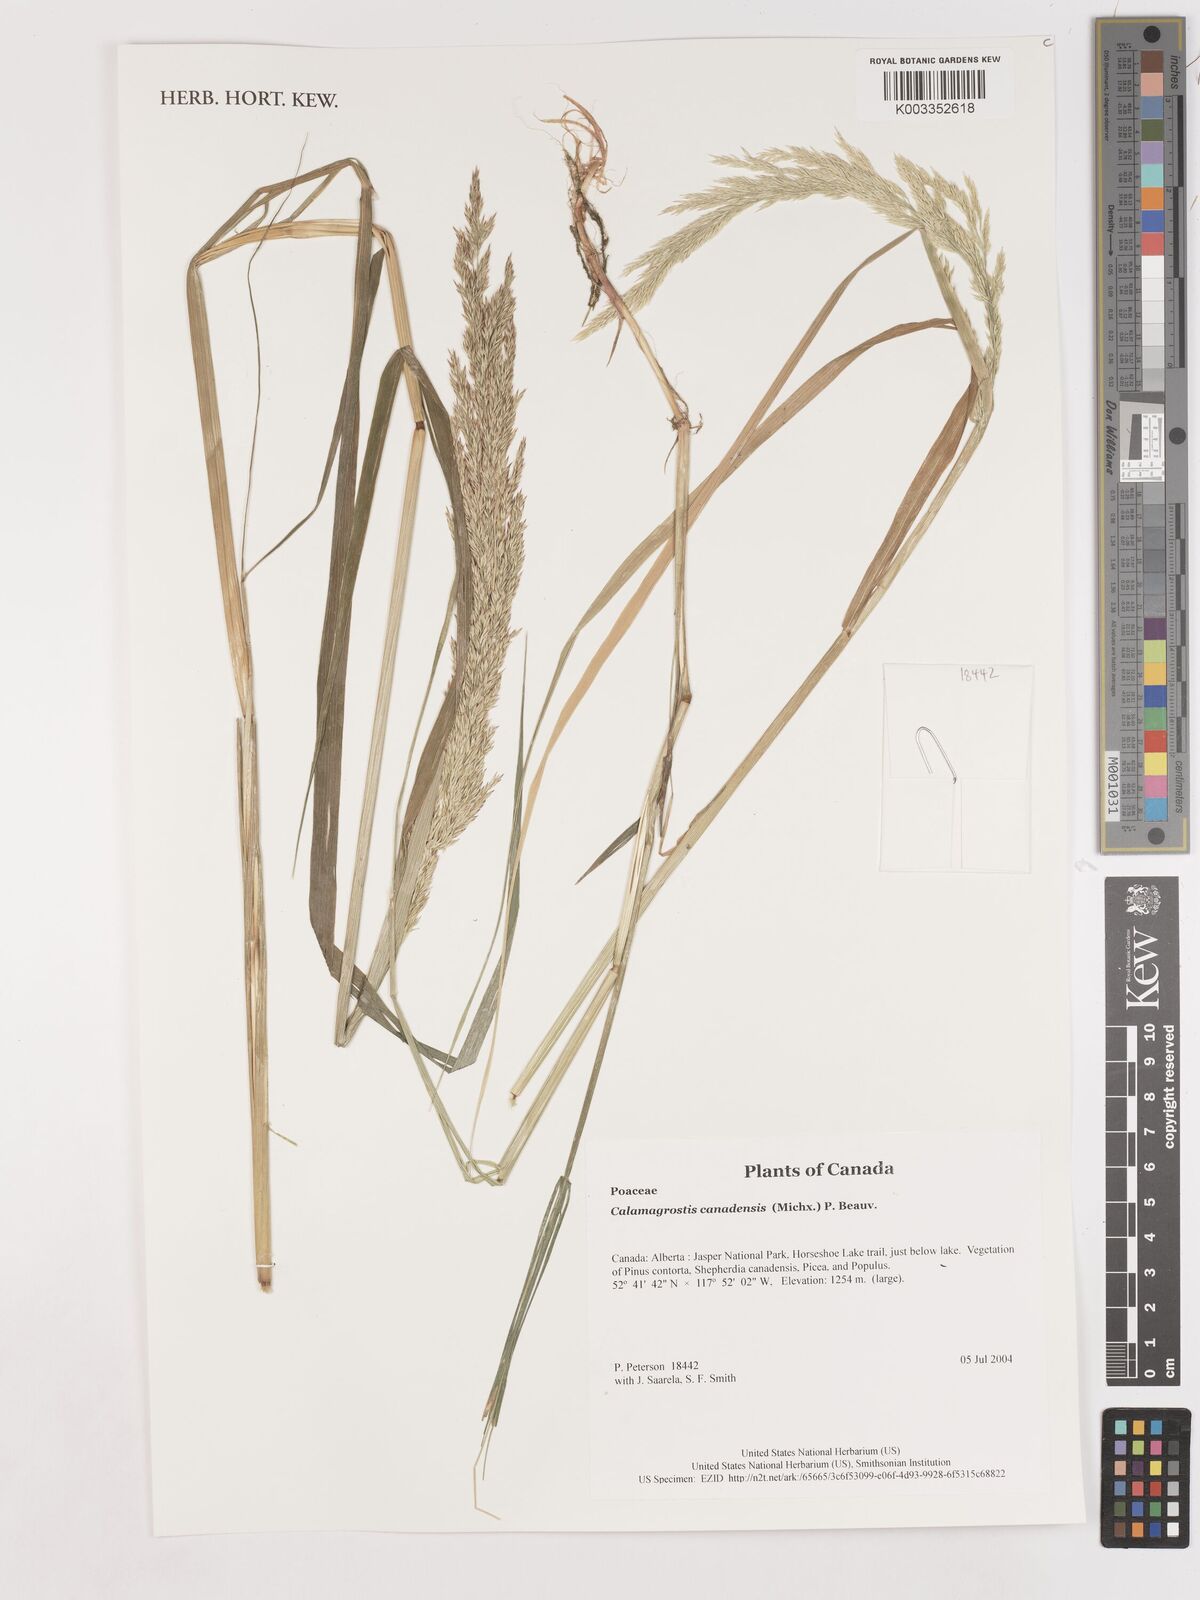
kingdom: Plantae
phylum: Tracheophyta
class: Liliopsida
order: Poales
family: Poaceae
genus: Calamagrostis
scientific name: Calamagrostis canadensis
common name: Canada bluejoint
